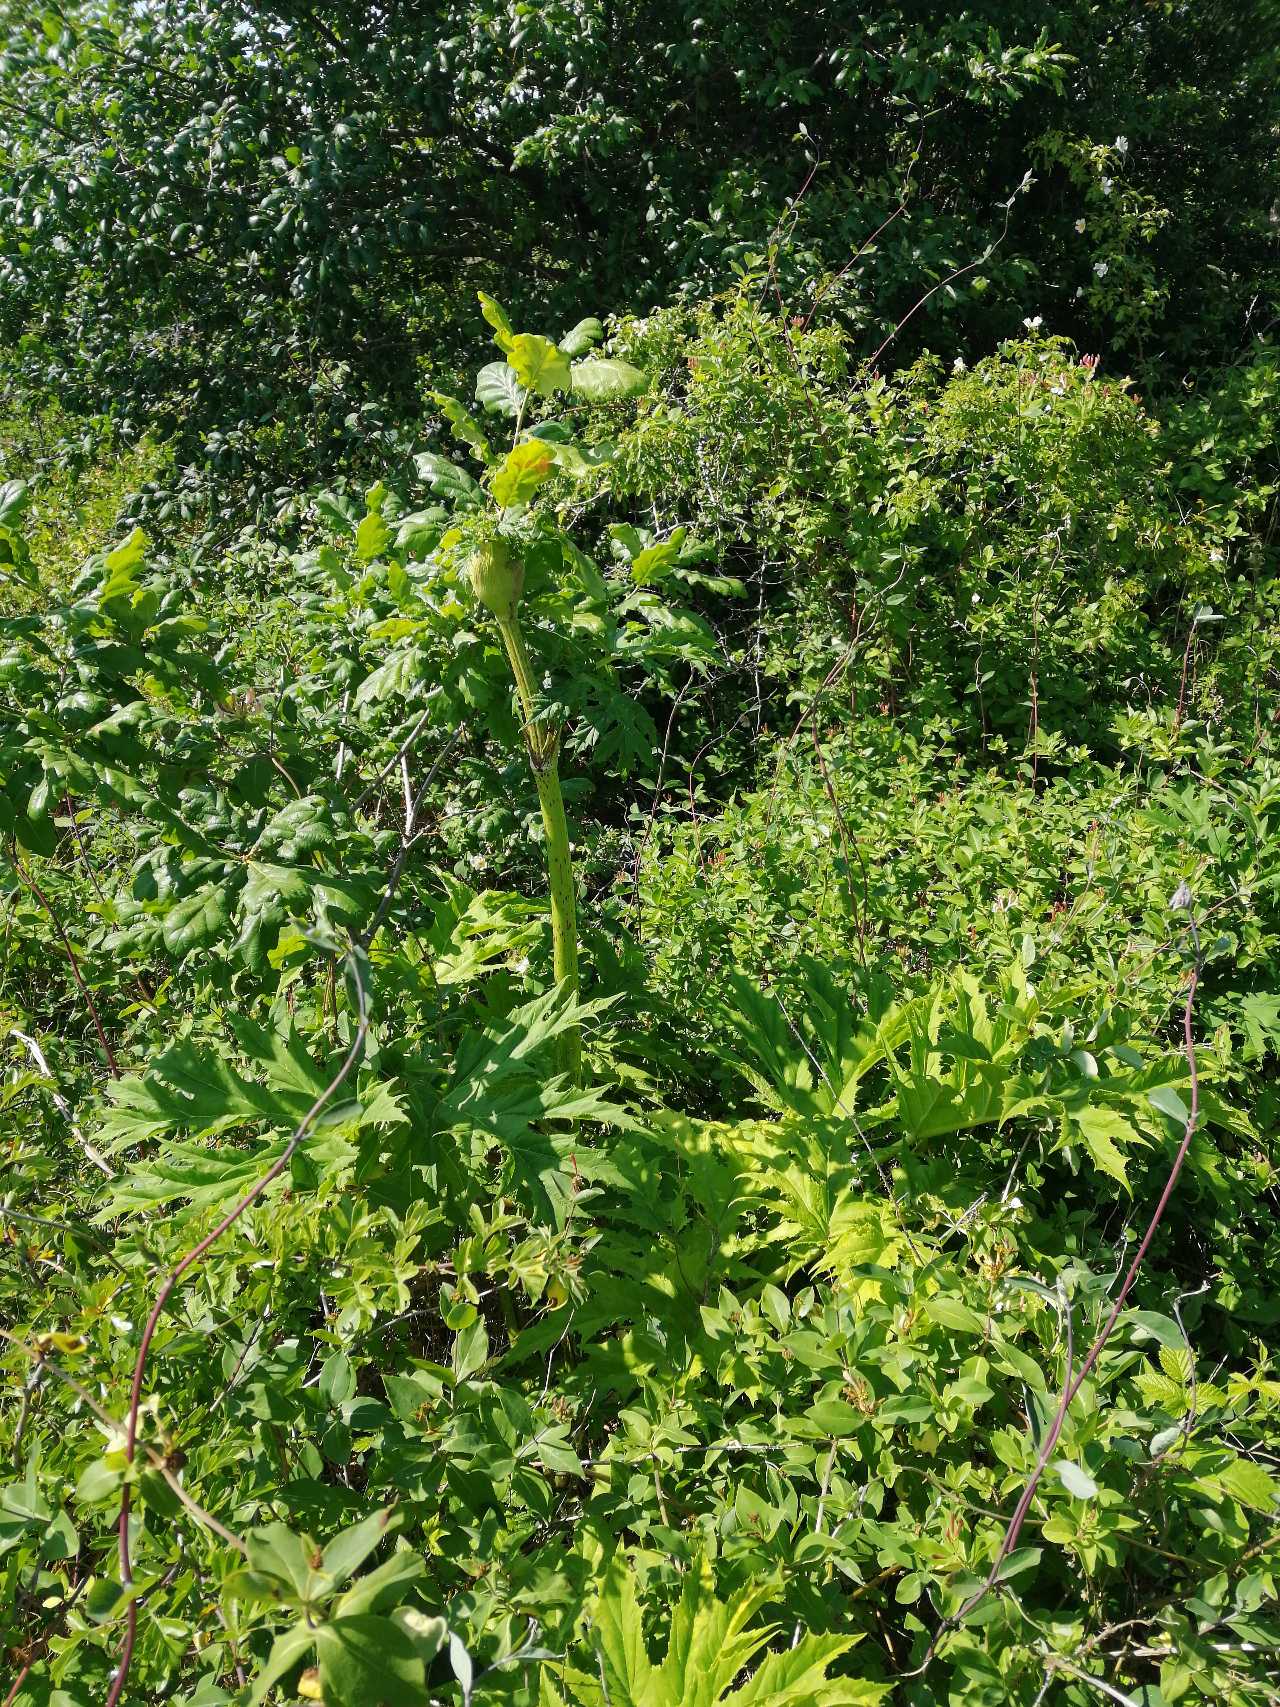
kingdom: Plantae
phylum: Tracheophyta
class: Magnoliopsida
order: Apiales
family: Apiaceae
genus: Heracleum
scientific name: Heracleum mantegazzianum
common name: Kæmpe-bjørneklo
